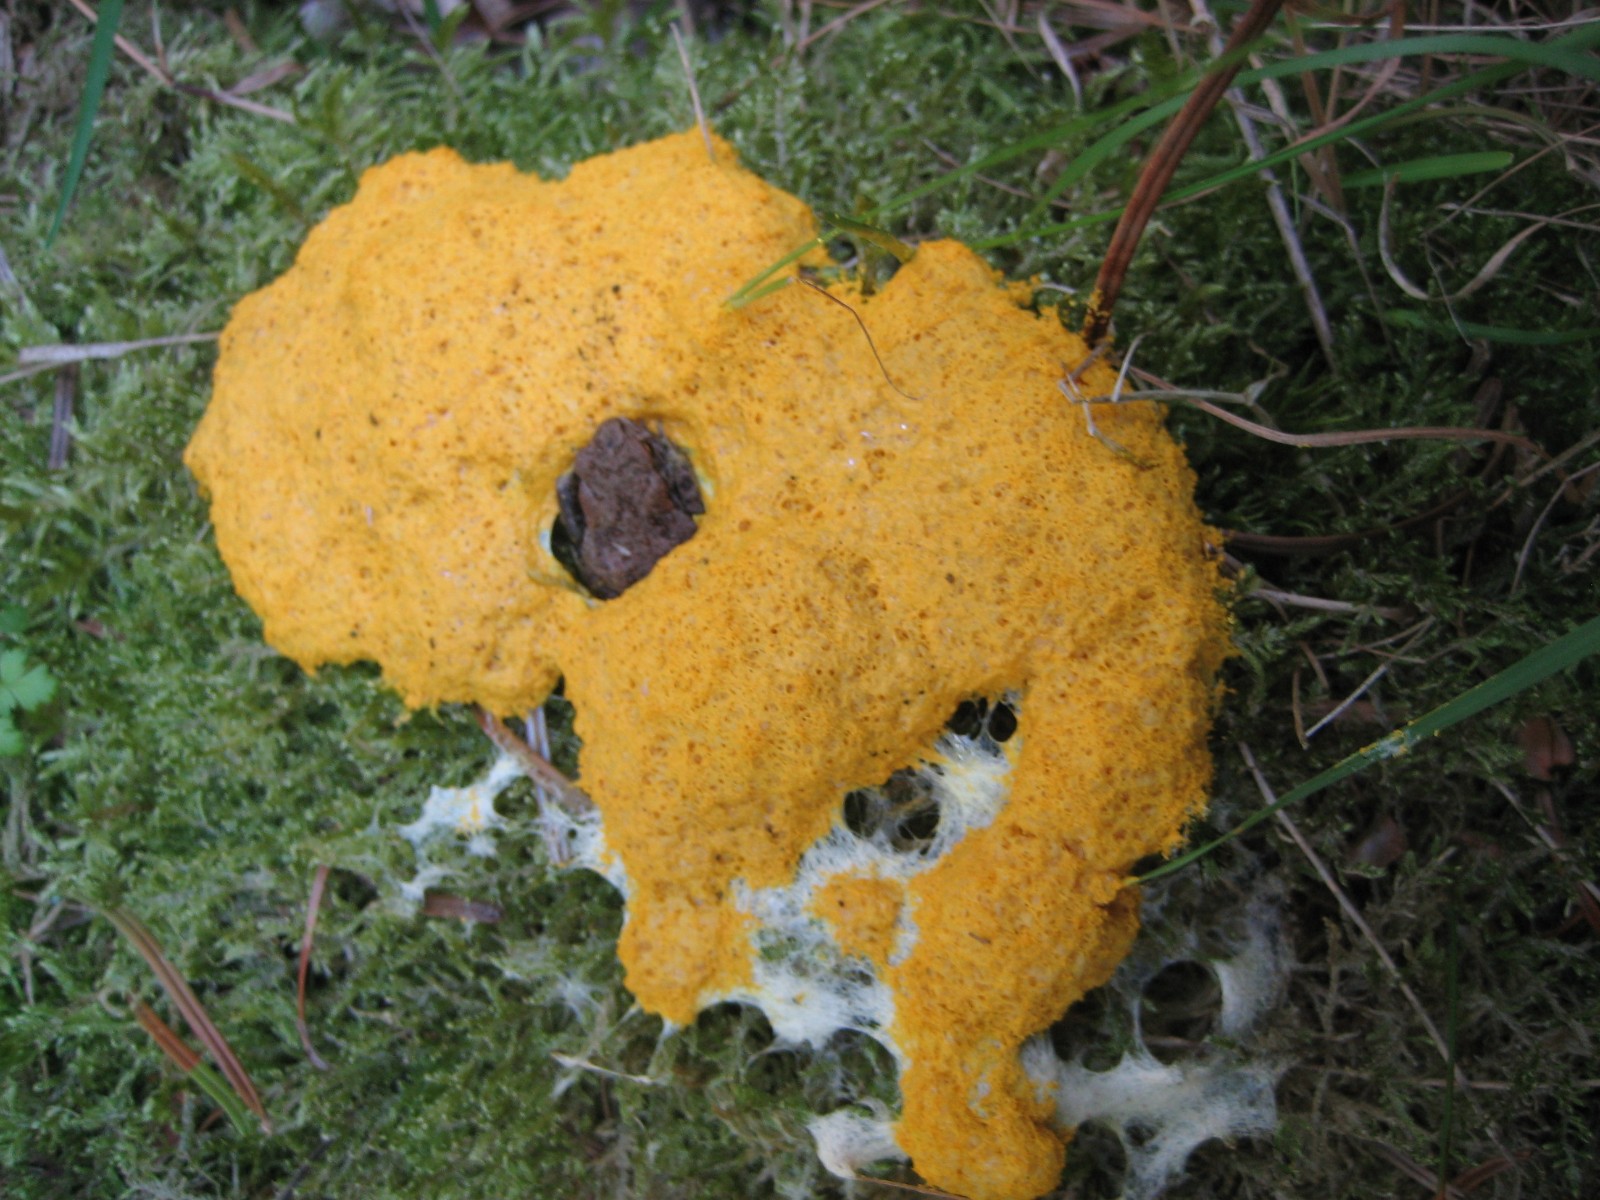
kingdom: Protozoa
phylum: Mycetozoa
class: Myxomycetes
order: Physarales
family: Physaraceae
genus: Fuligo
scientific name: Fuligo septica
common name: gul troldsmør
